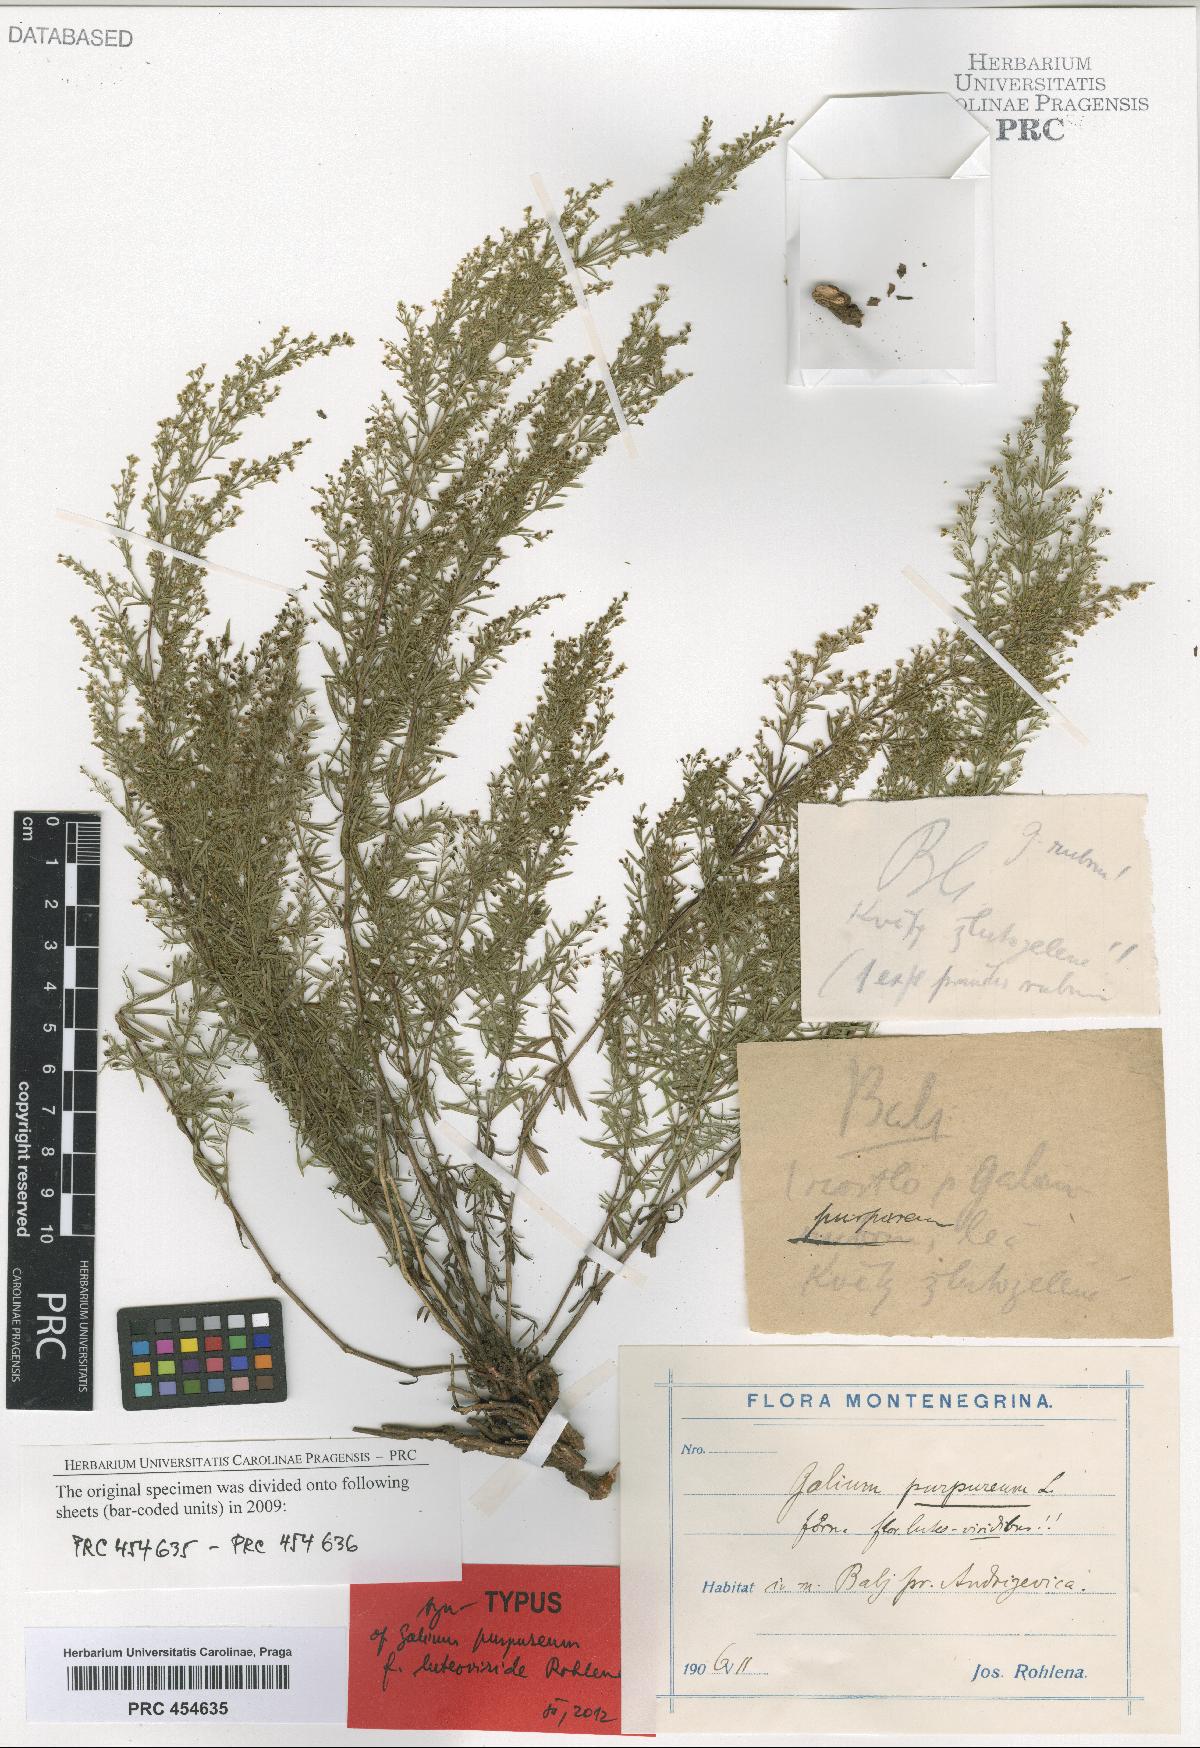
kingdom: Plantae
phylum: Tracheophyta
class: Magnoliopsida
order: Gentianales
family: Rubiaceae
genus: Thliphthisa
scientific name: Thliphthisa purpurea
